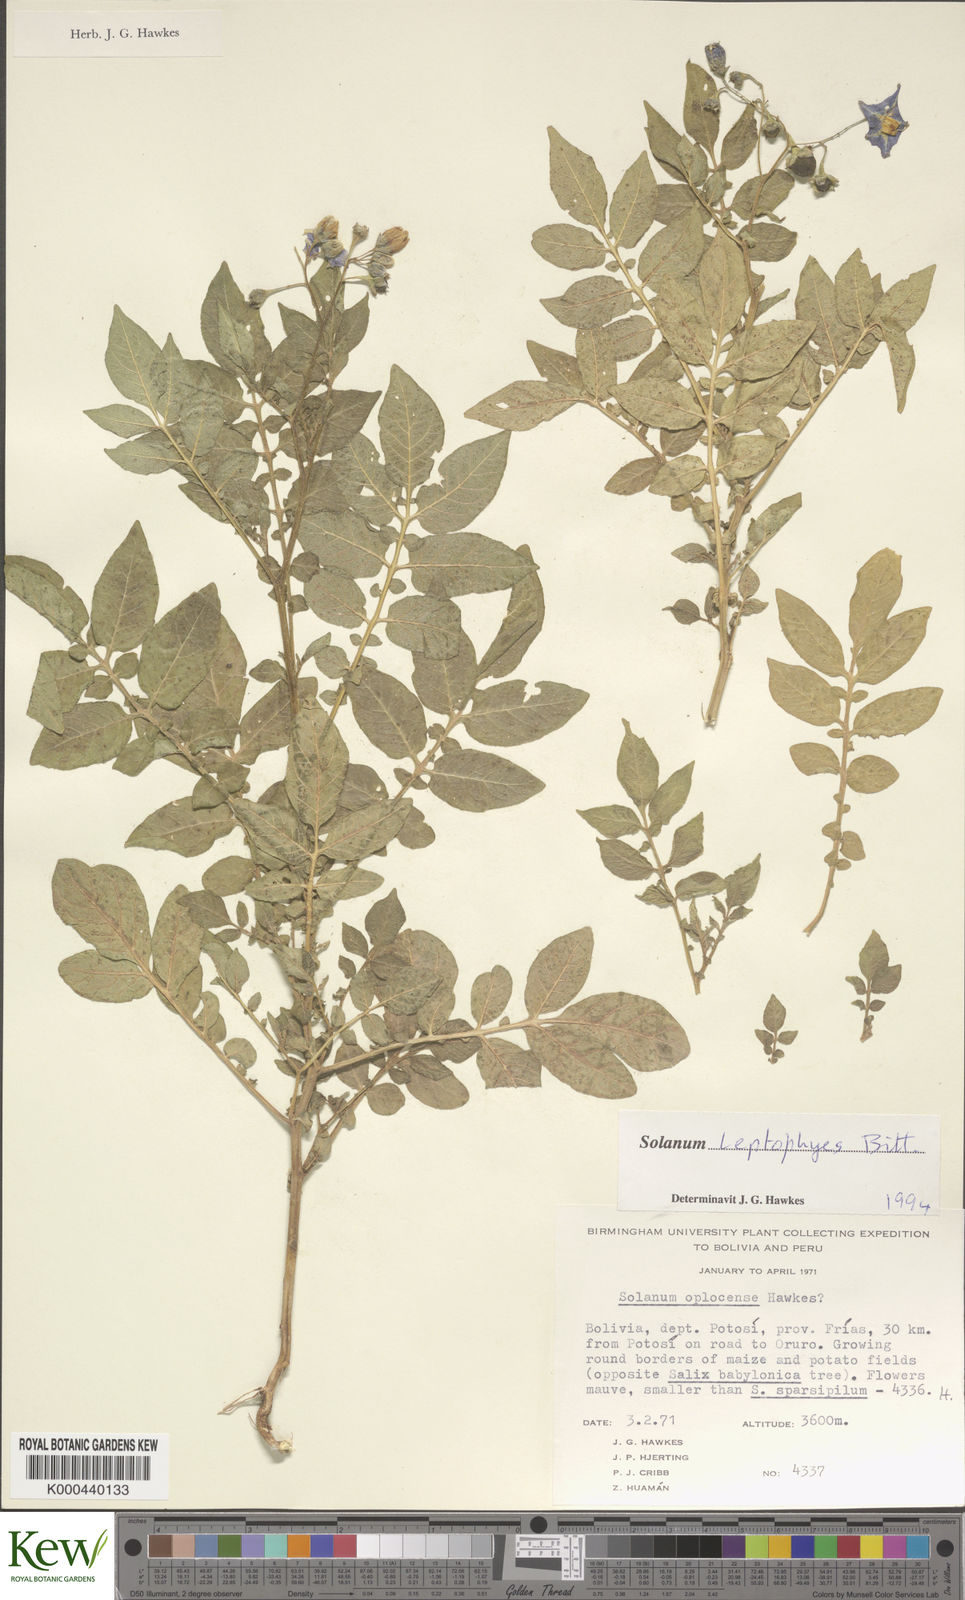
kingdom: Plantae
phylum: Tracheophyta
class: Magnoliopsida
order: Solanales
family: Solanaceae
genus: Solanum
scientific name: Solanum brevicaule
